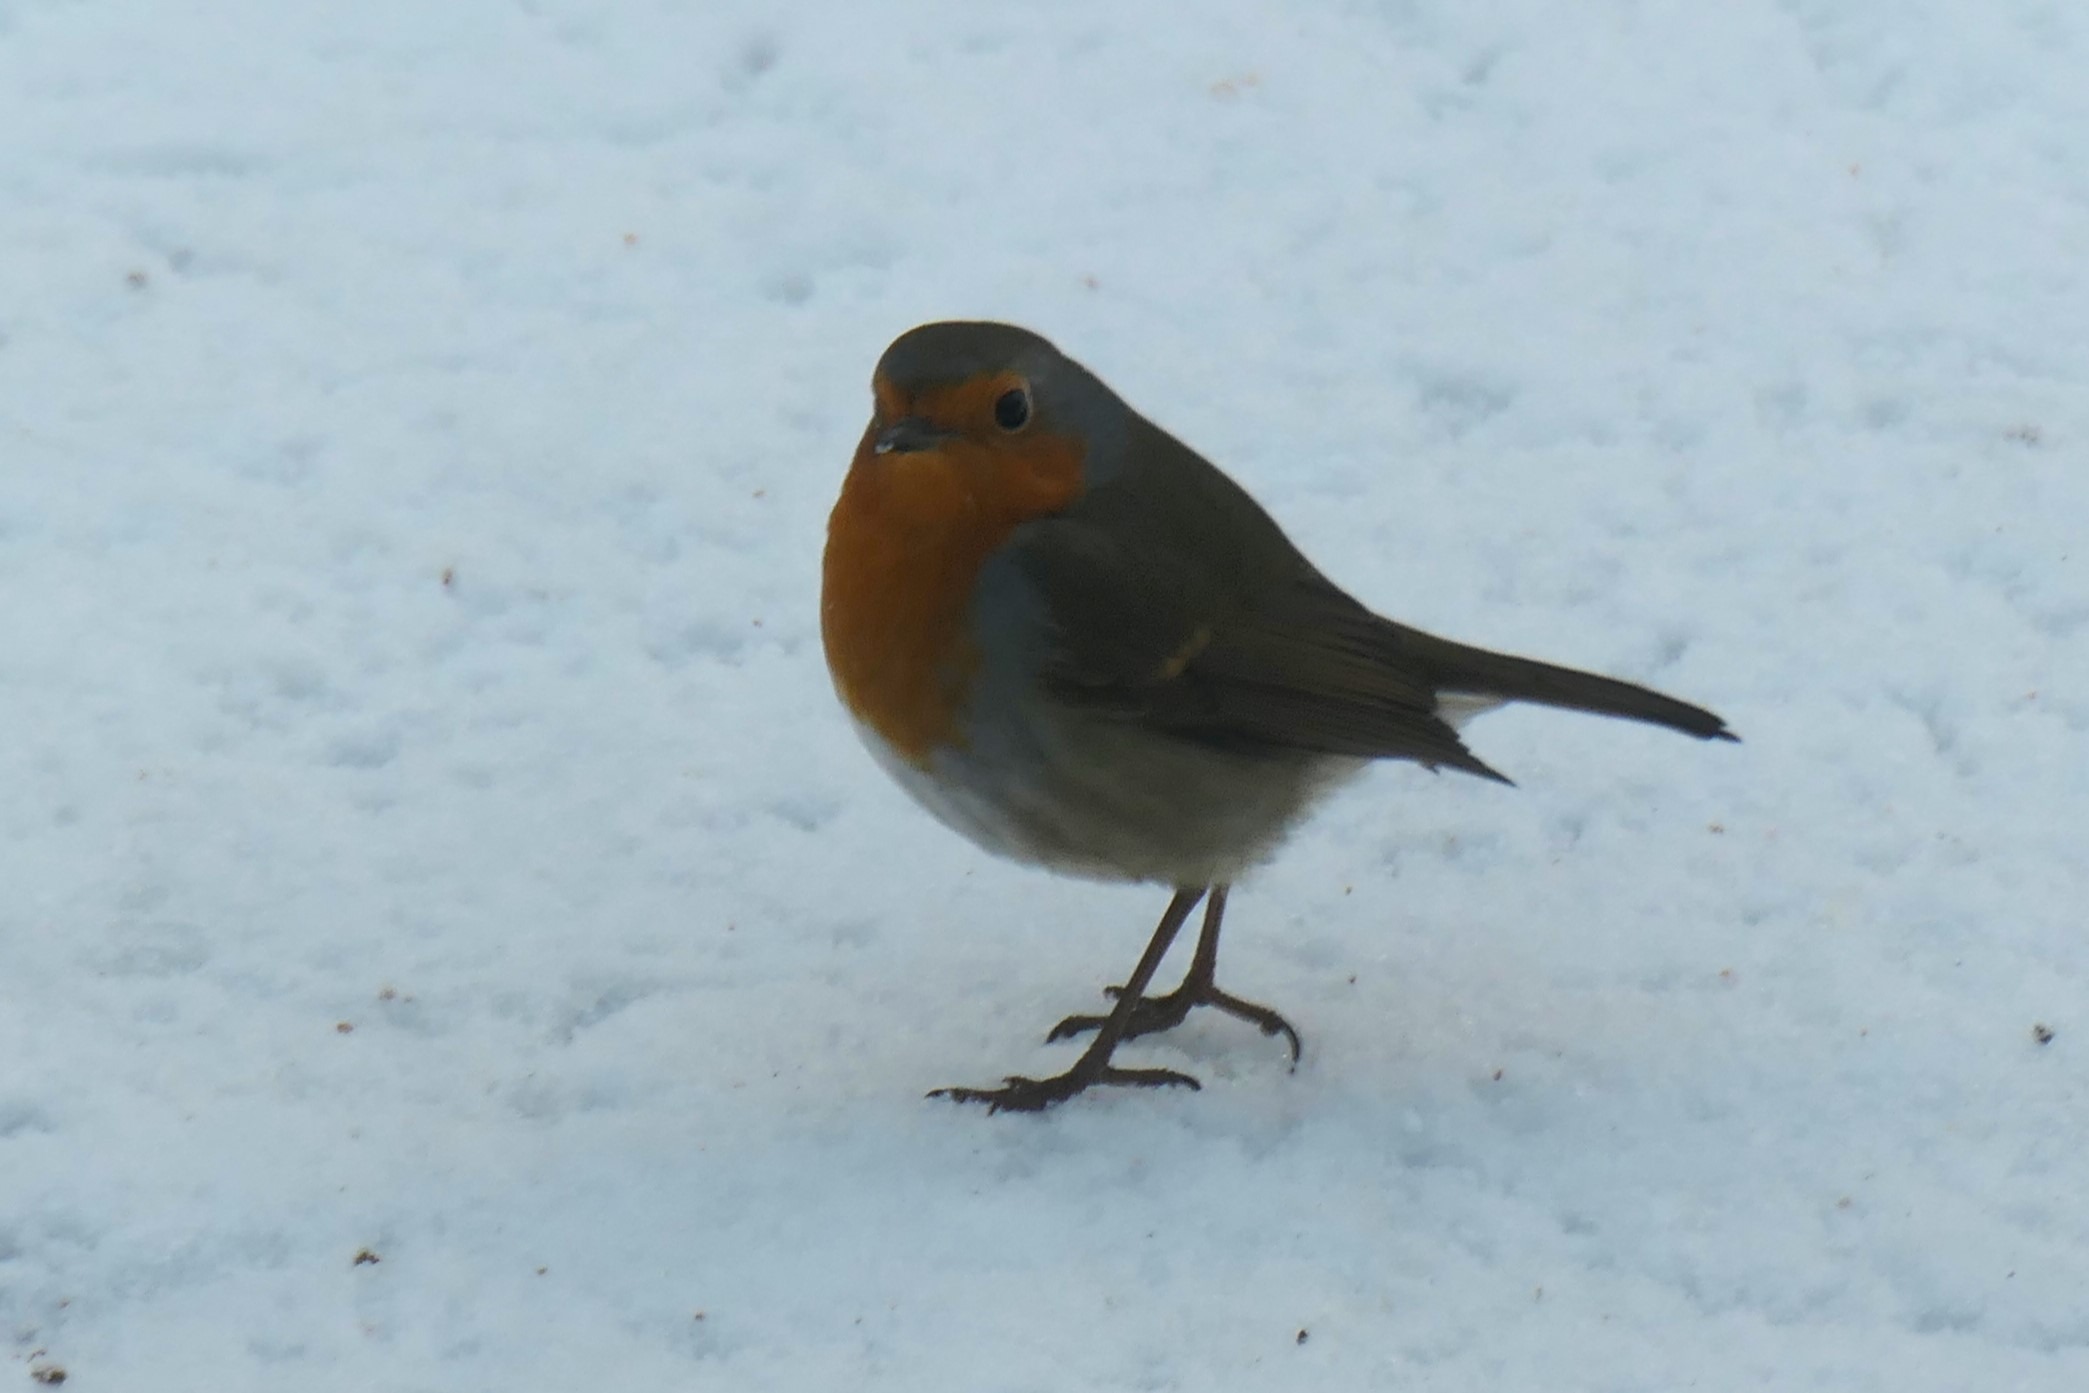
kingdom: Animalia
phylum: Chordata
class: Aves
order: Passeriformes
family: Muscicapidae
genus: Erithacus
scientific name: Erithacus rubecula
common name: Rødhals/rødkælk
